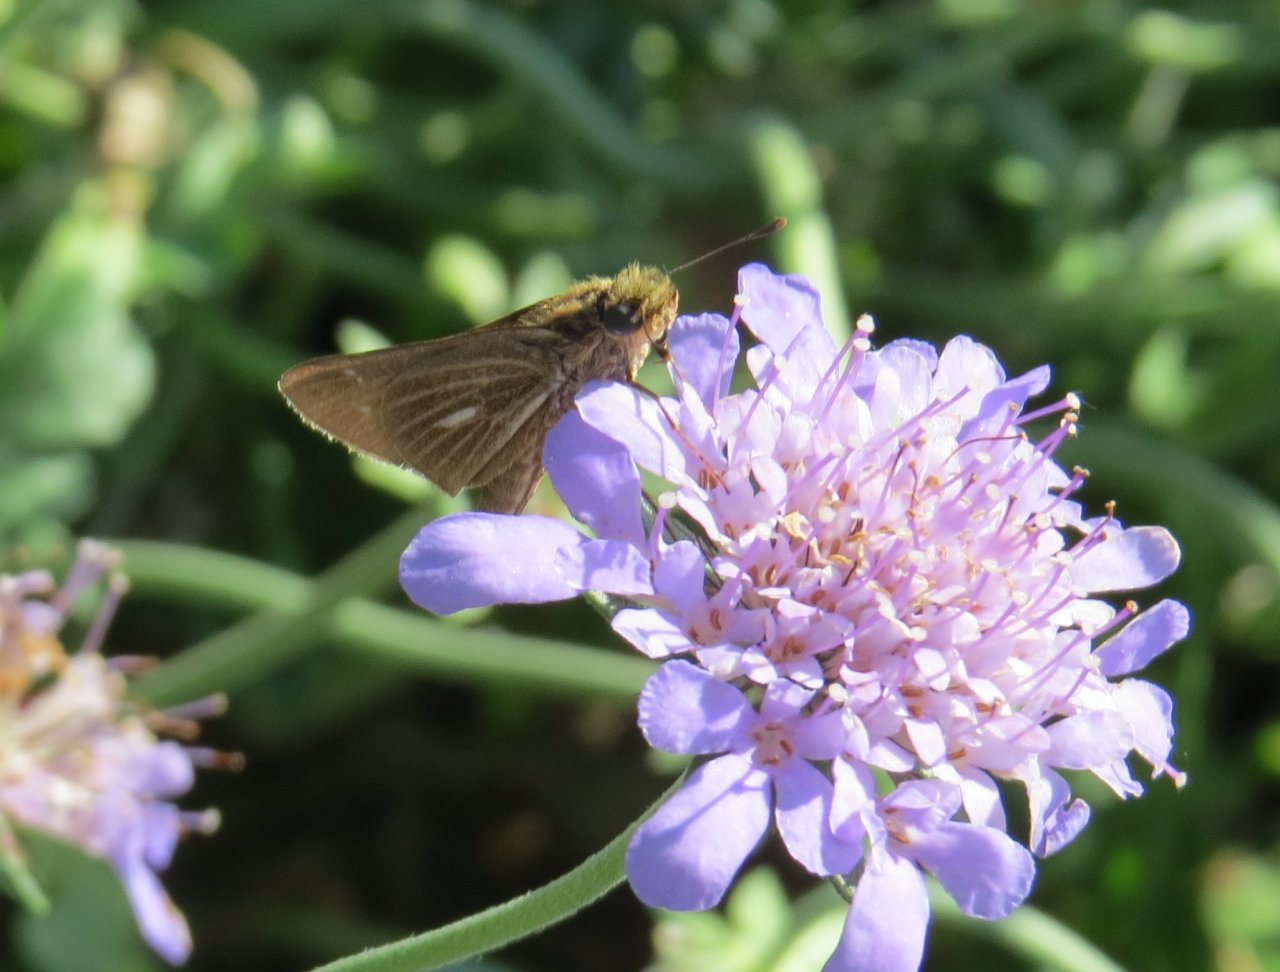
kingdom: Animalia
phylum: Arthropoda
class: Insecta
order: Lepidoptera
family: Hesperiidae
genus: Panoquina
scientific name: Panoquina panoquin
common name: Salt Marsh Skipper
